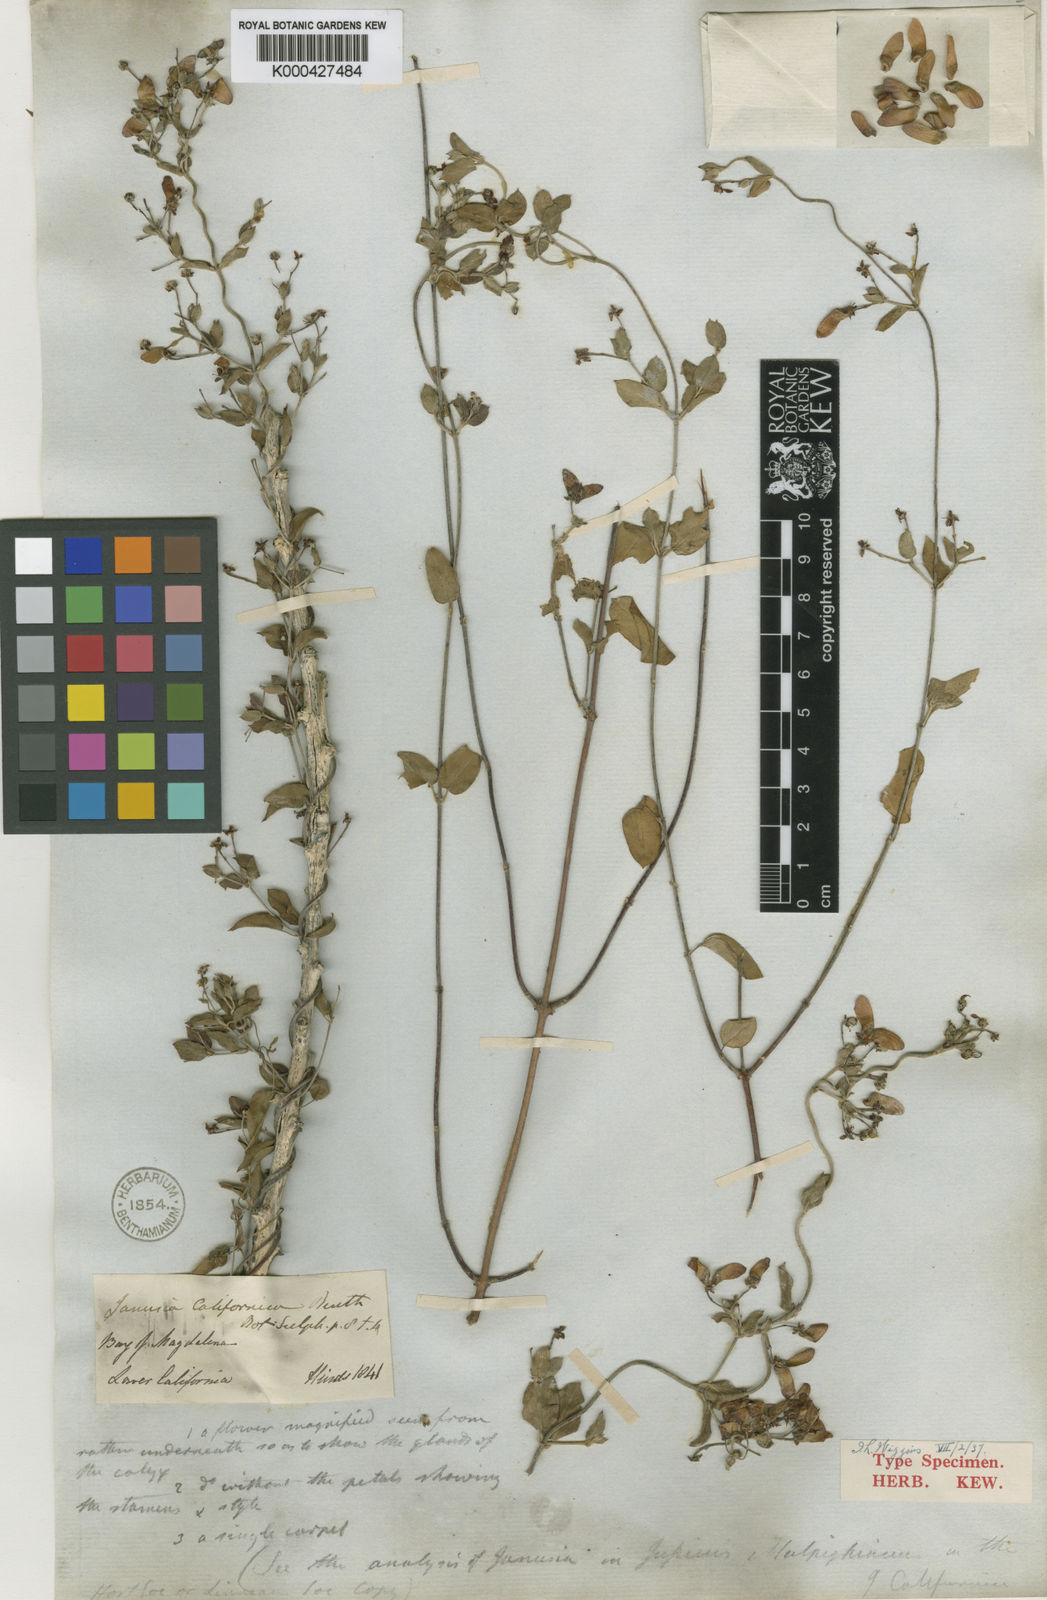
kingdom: Plantae
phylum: Tracheophyta
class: Magnoliopsida
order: Malpighiales
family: Malpighiaceae
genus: Cottsia
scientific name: Cottsia californica
